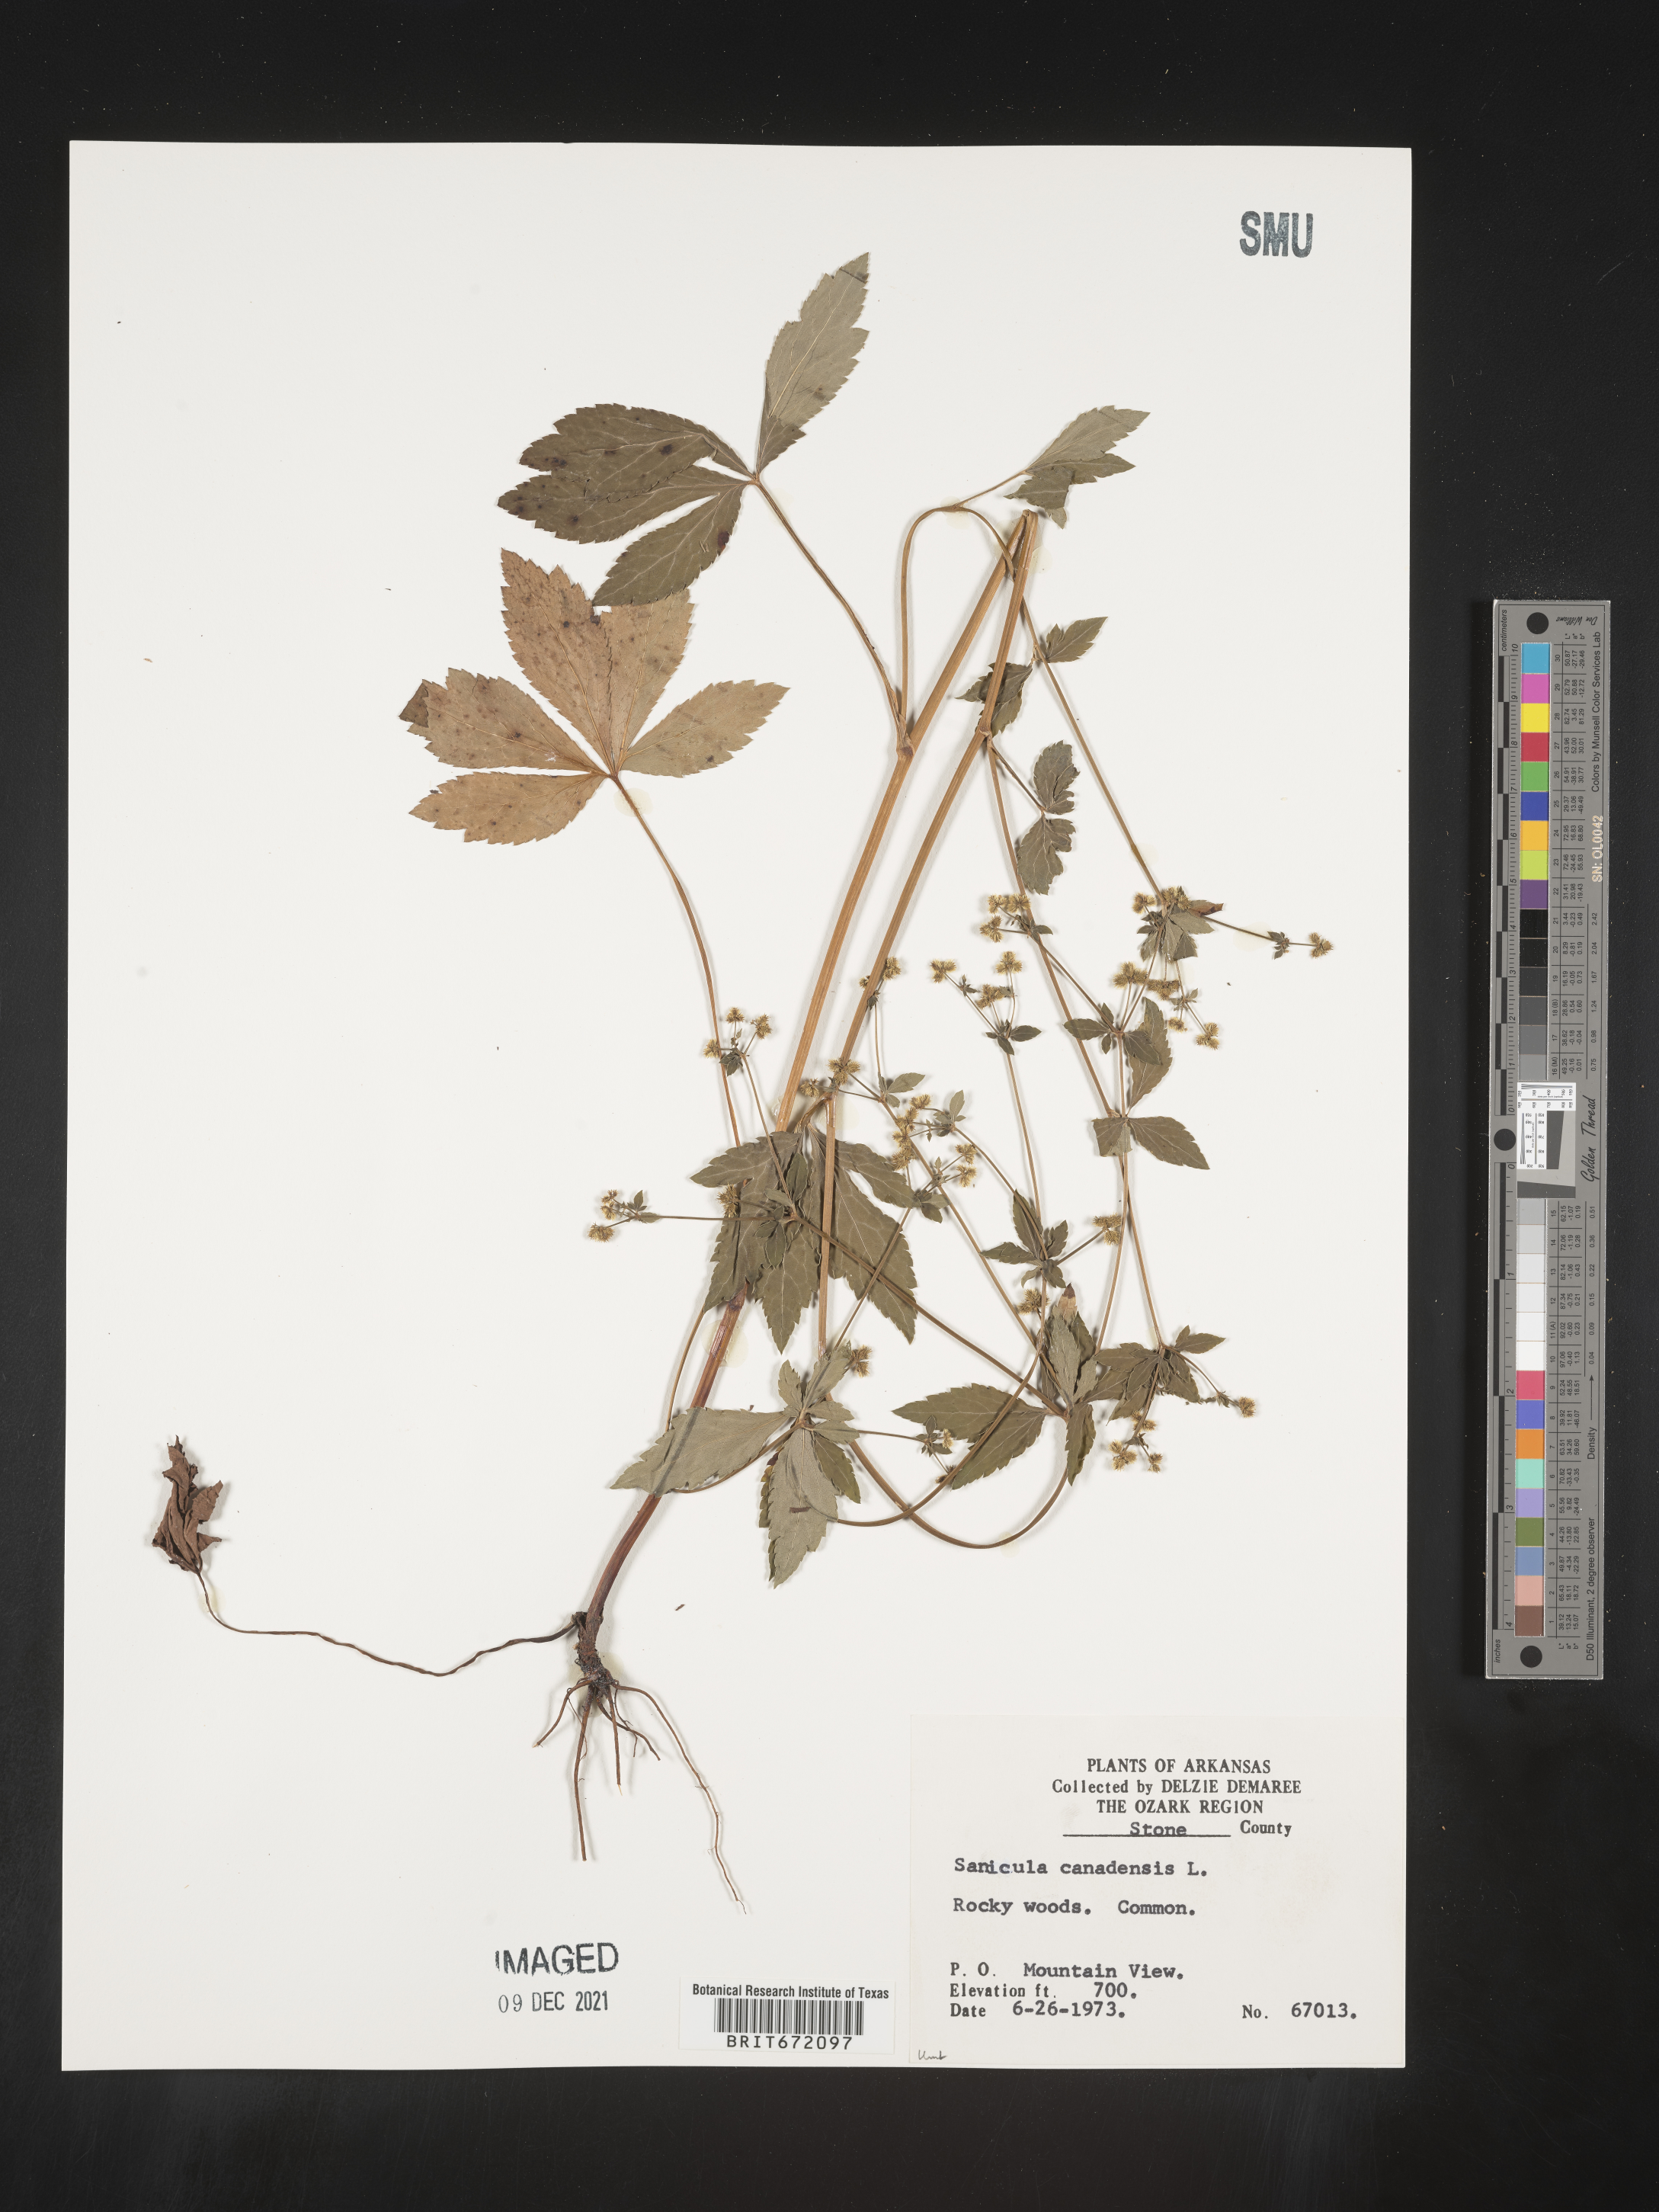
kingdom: Plantae
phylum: Tracheophyta
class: Magnoliopsida
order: Apiales
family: Apiaceae
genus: Sanicula
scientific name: Sanicula canadensis
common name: Canada sanicle
